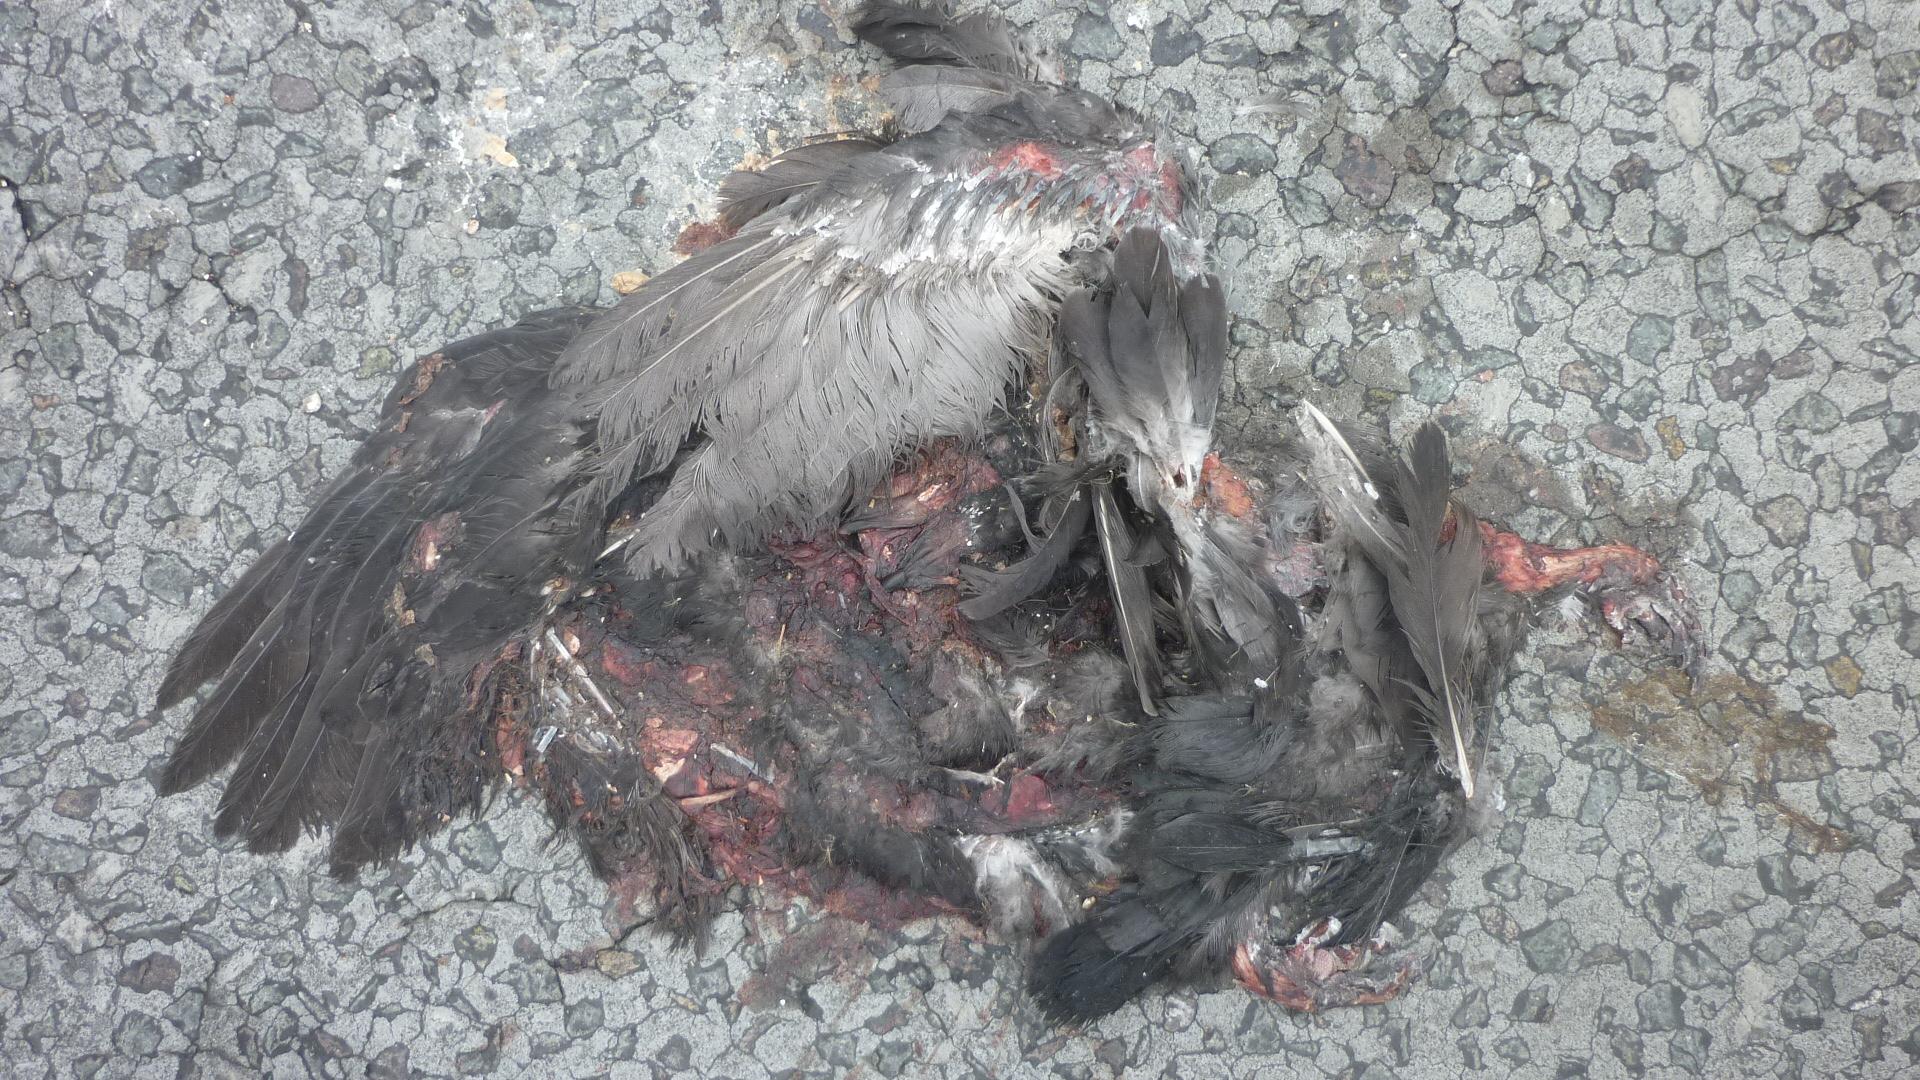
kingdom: Animalia
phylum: Chordata
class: Aves
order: Columbiformes
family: Columbidae
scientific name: Columbidae
